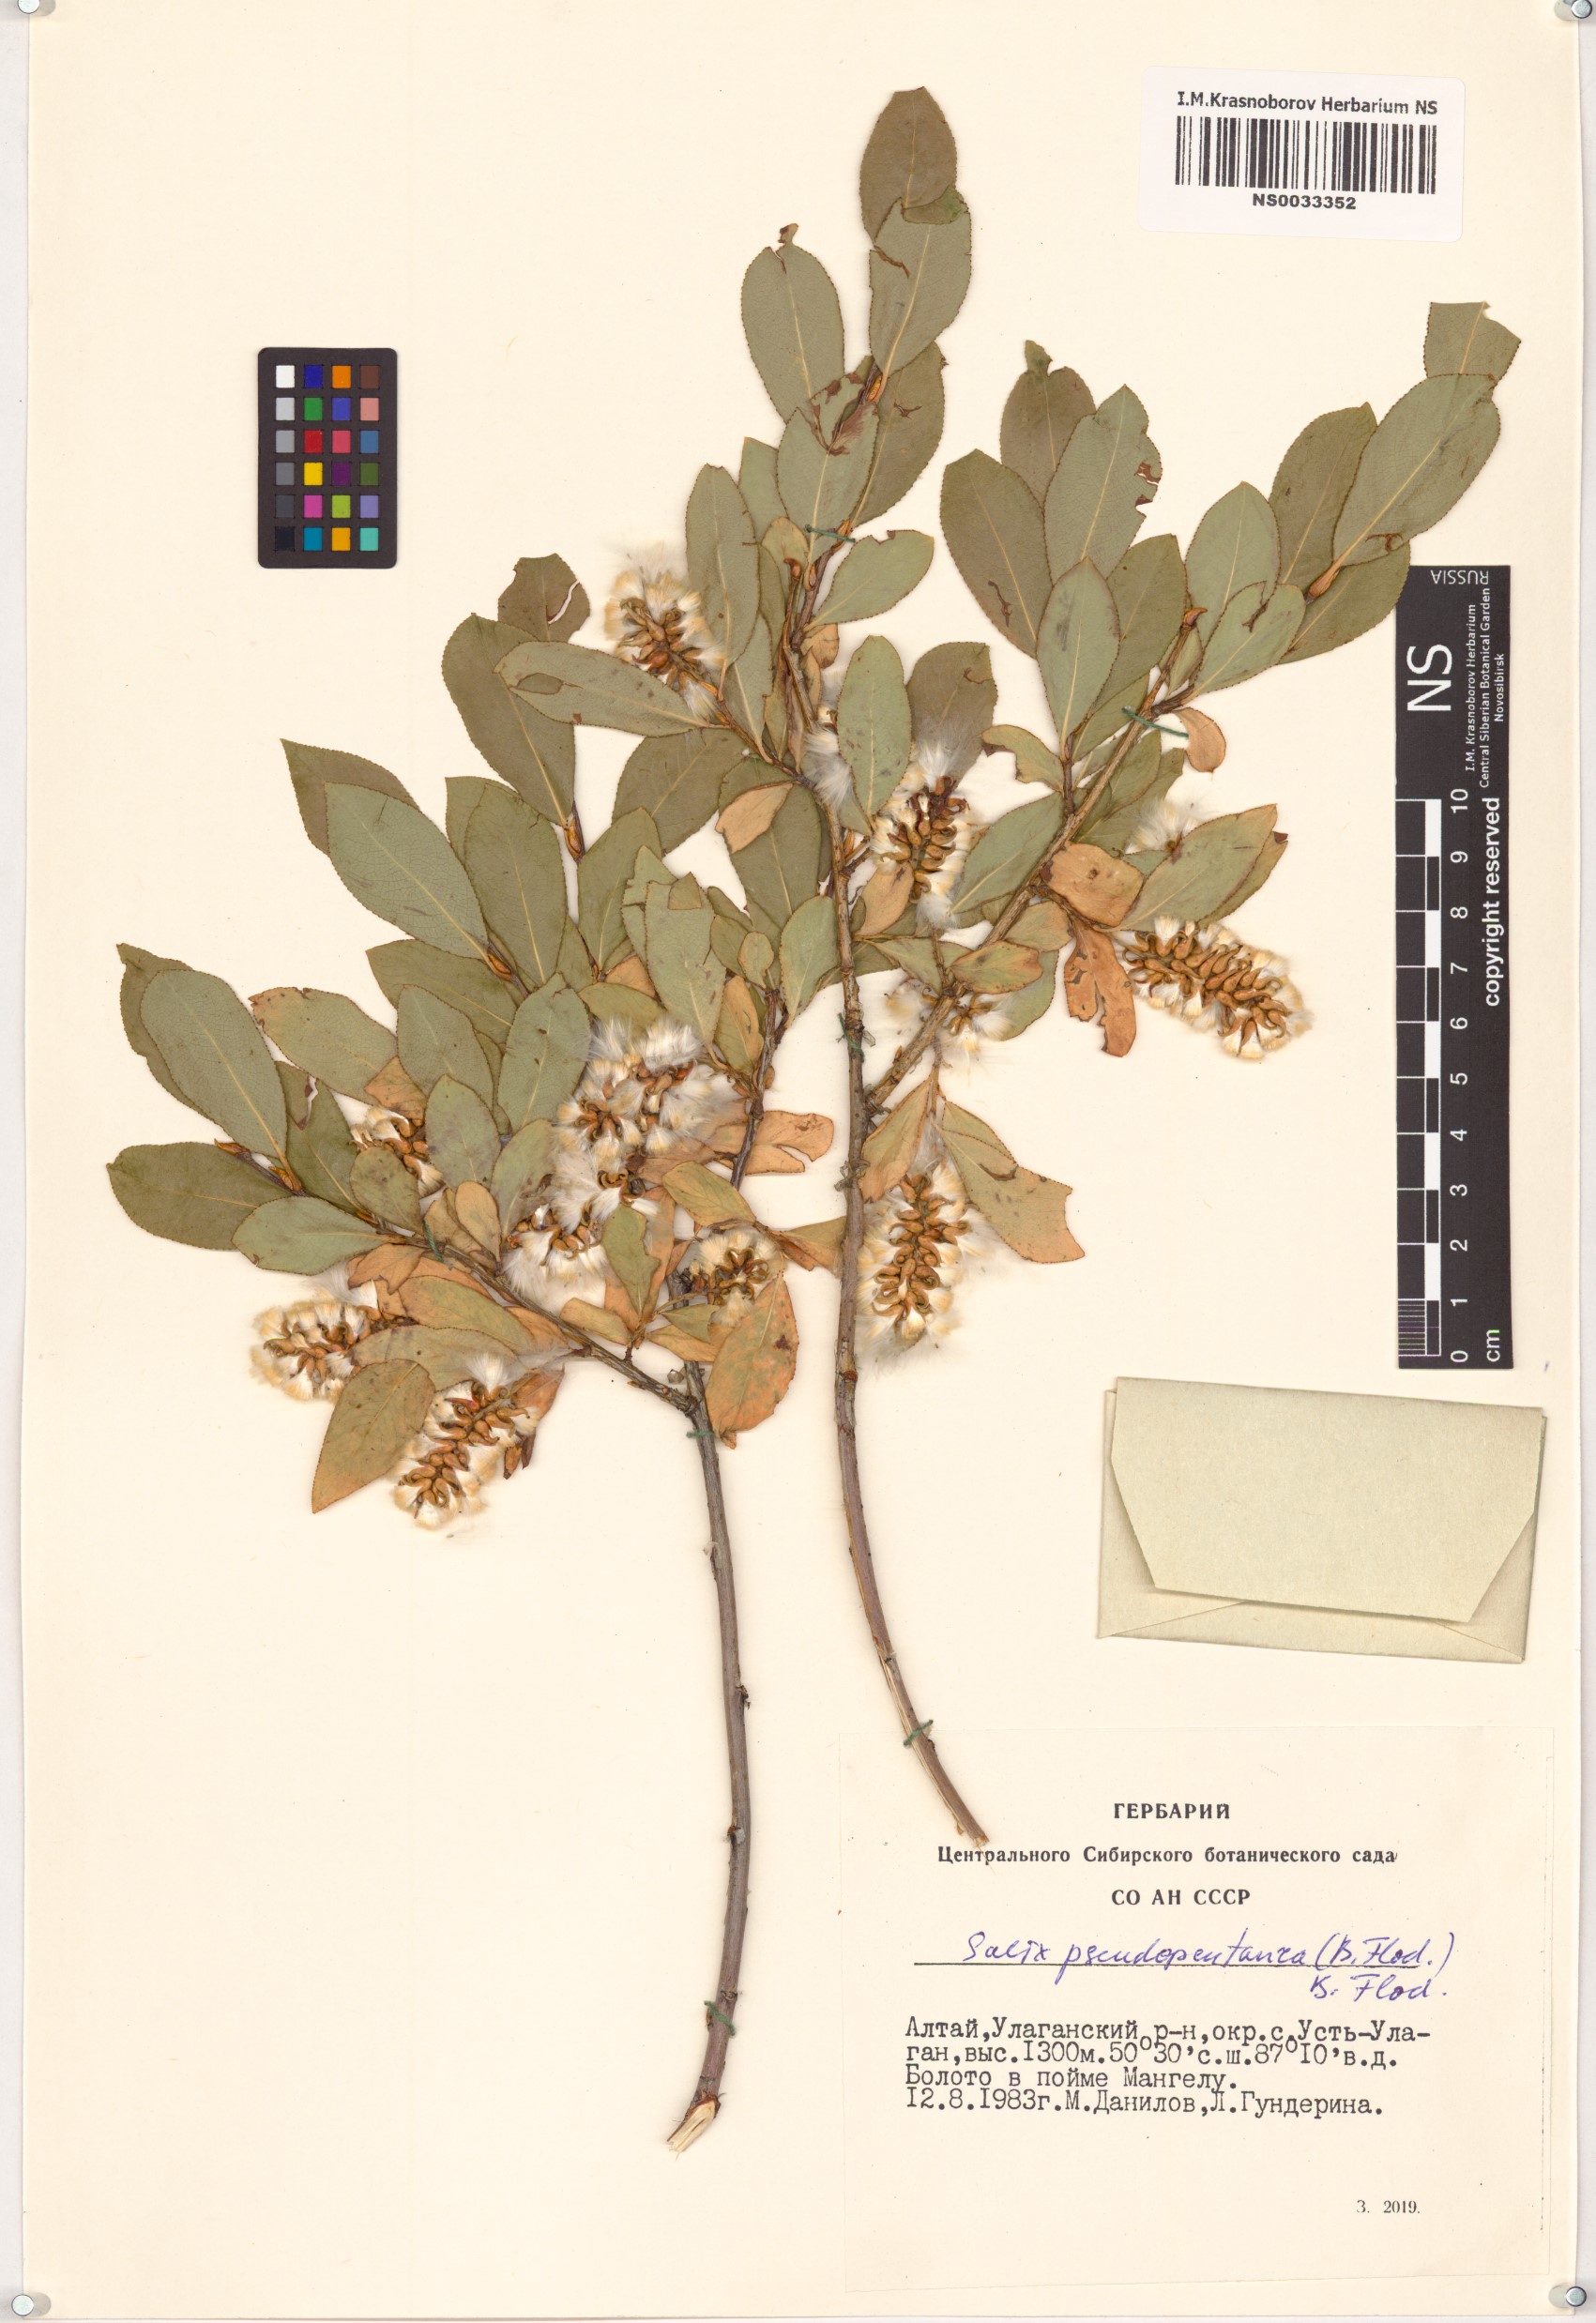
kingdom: Plantae
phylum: Tracheophyta
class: Magnoliopsida
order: Malpighiales
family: Salicaceae
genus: Salix
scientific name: Salix pseudopentandra
